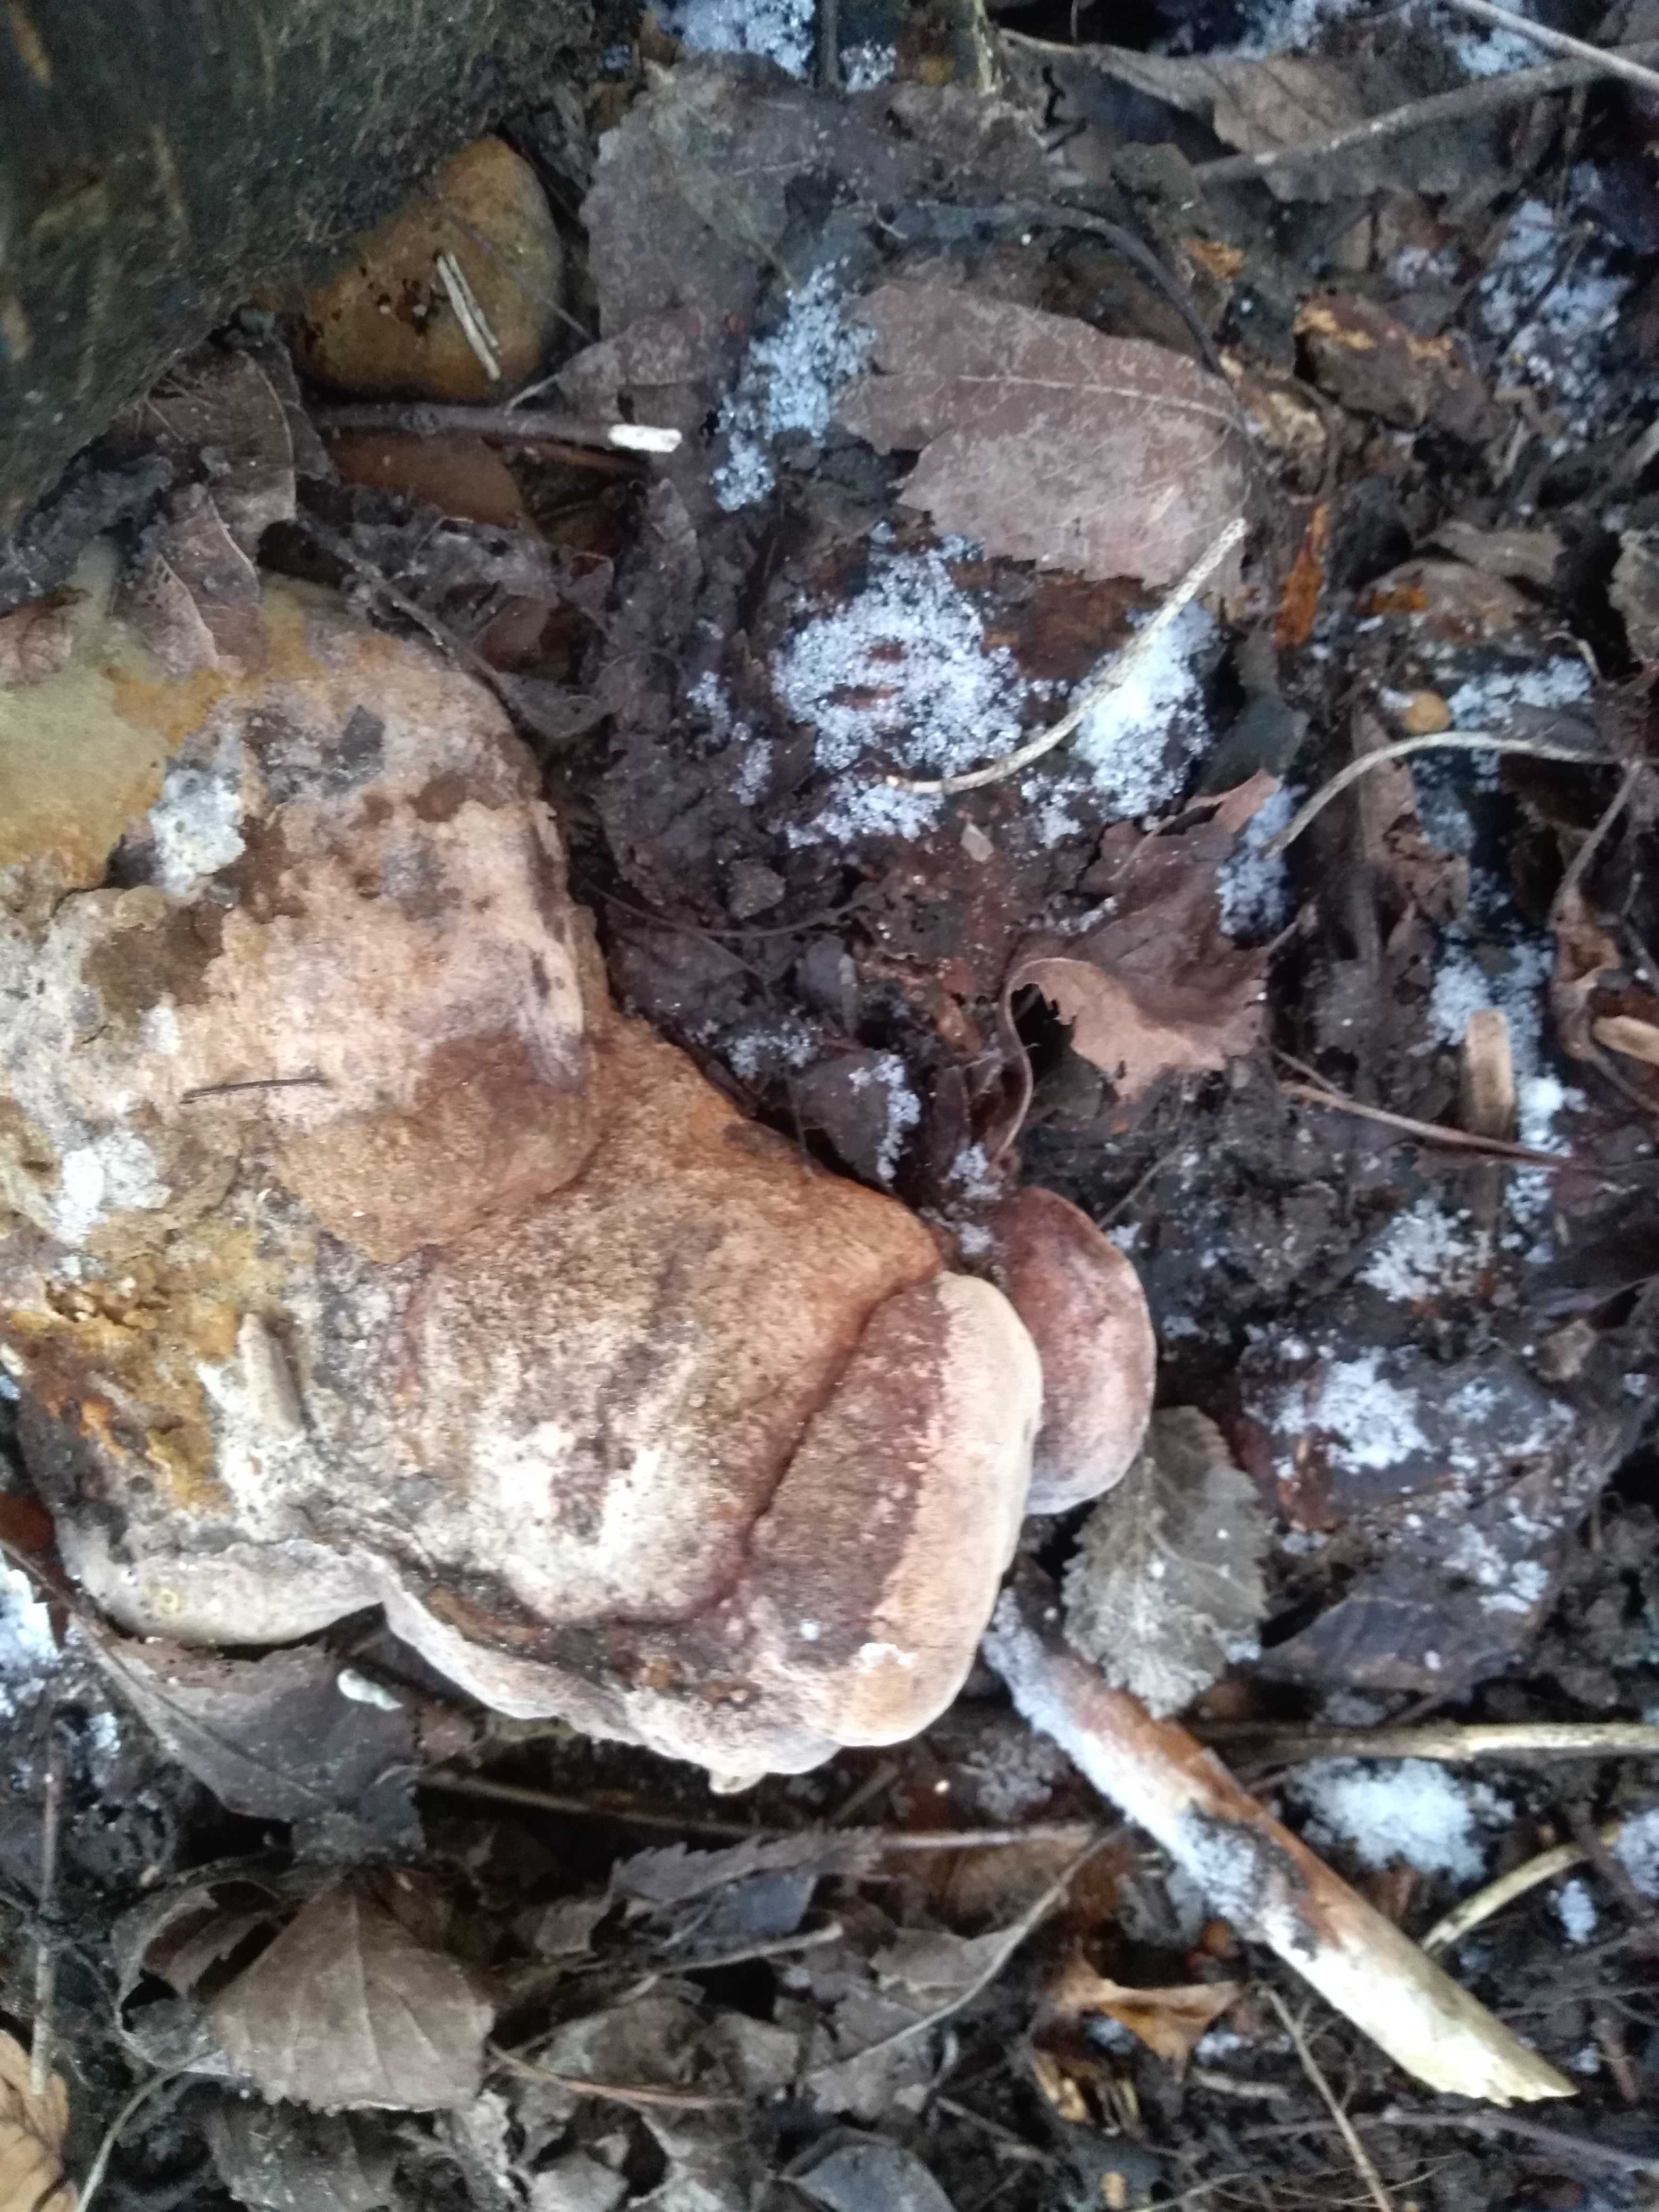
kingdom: Fungi
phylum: Basidiomycota
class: Agaricomycetes
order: Polyporales
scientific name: Polyporales
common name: poresvampordenen
